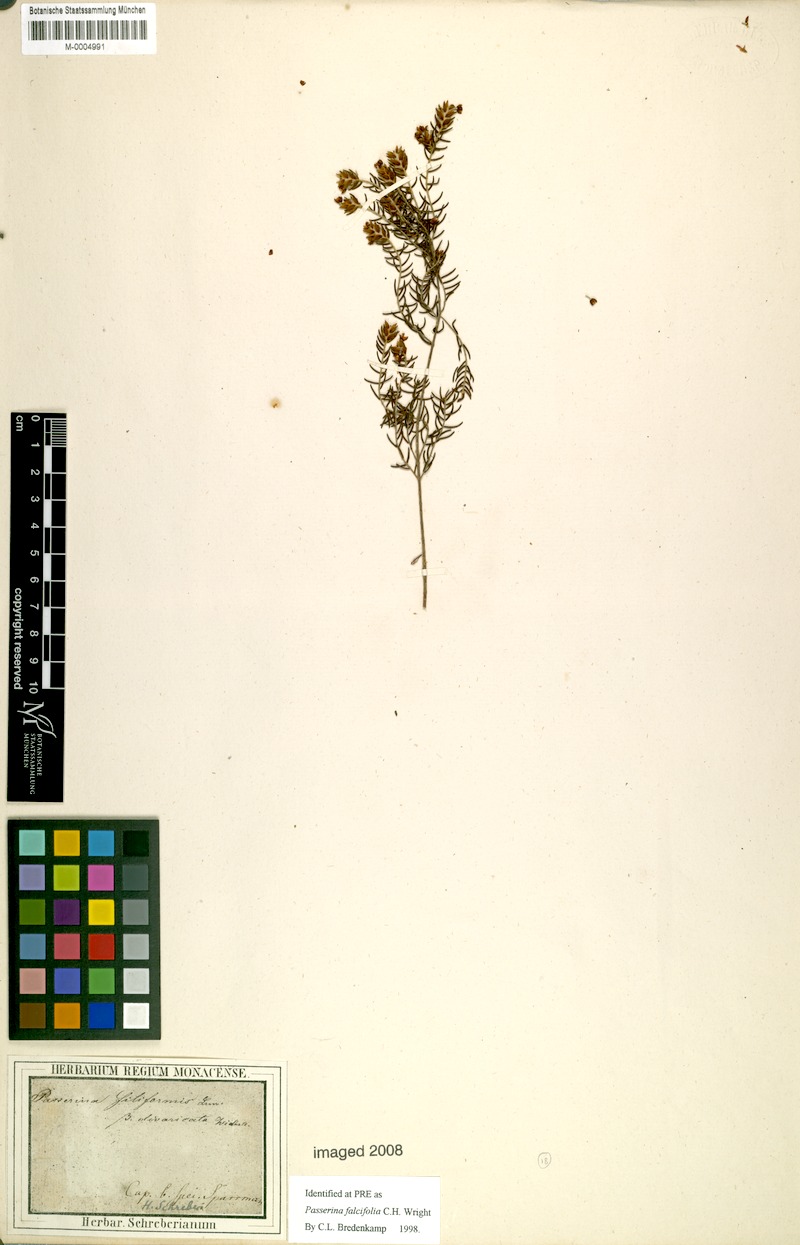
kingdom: Plantae
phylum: Tracheophyta
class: Magnoliopsida
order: Malvales
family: Thymelaeaceae
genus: Passerina
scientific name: Passerina falcifolia
